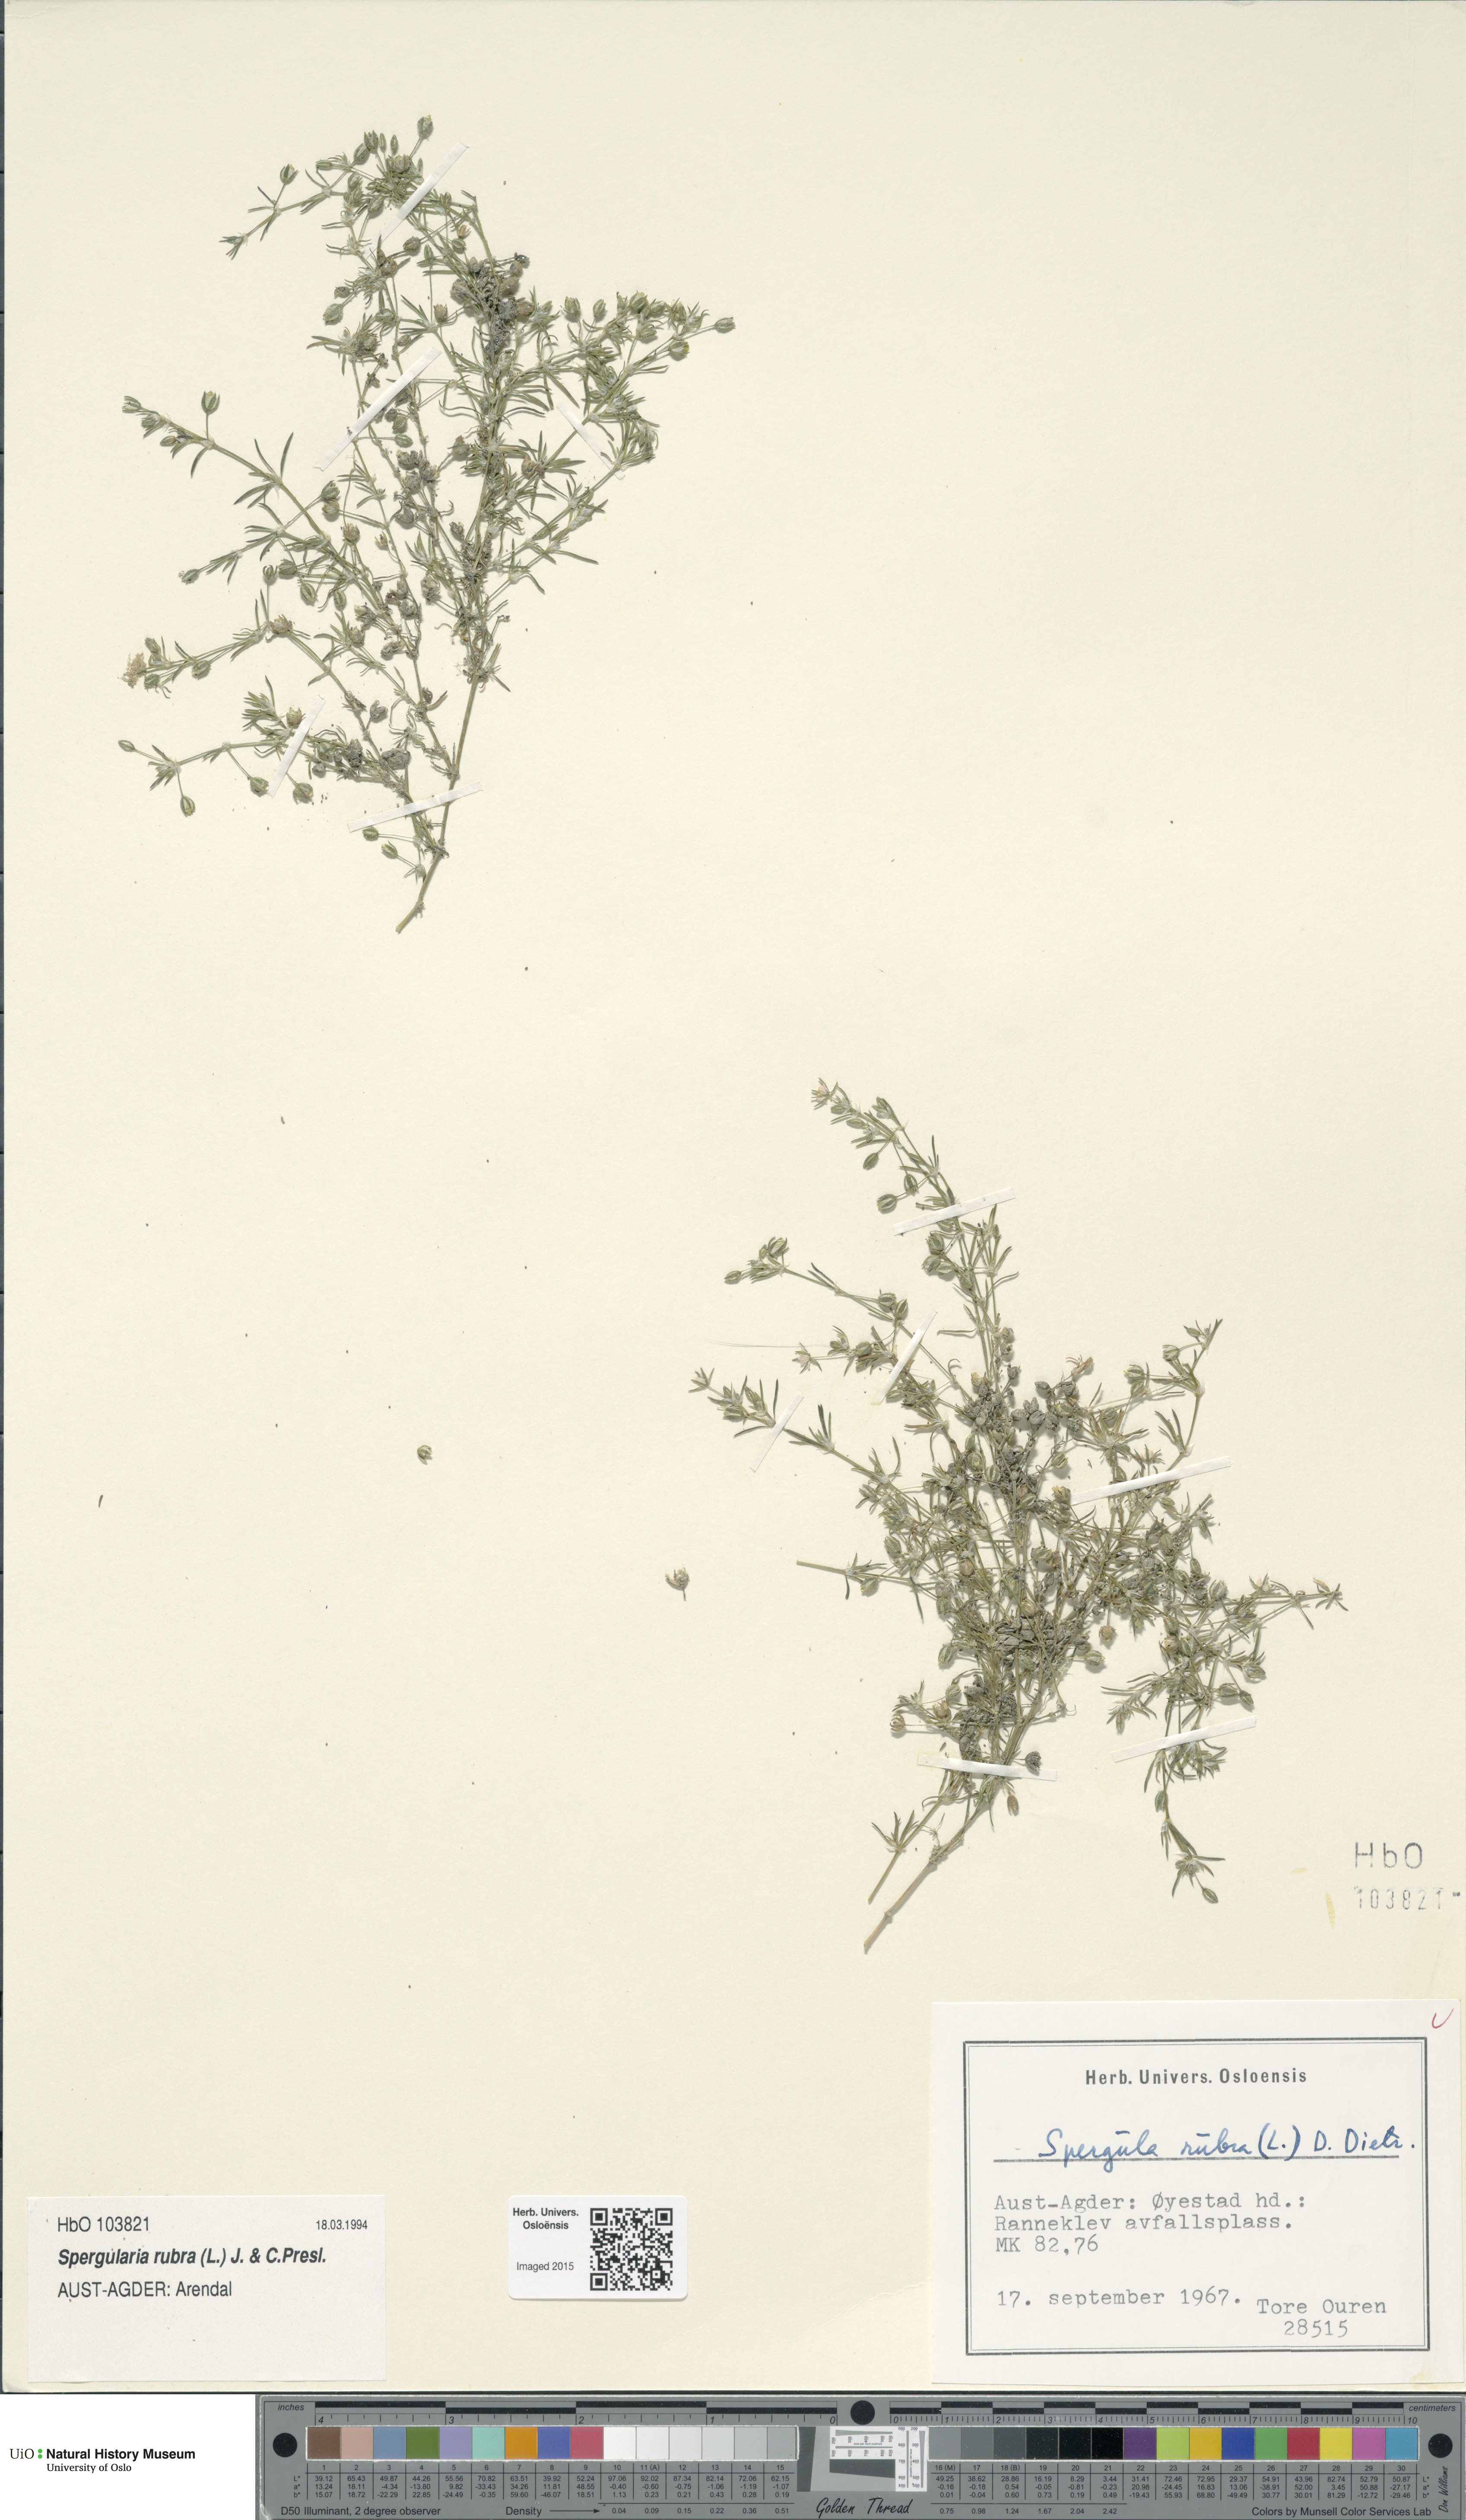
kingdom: Plantae
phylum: Tracheophyta
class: Magnoliopsida
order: Caryophyllales
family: Caryophyllaceae
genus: Spergularia
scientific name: Spergularia rubra
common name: Red sand-spurrey
